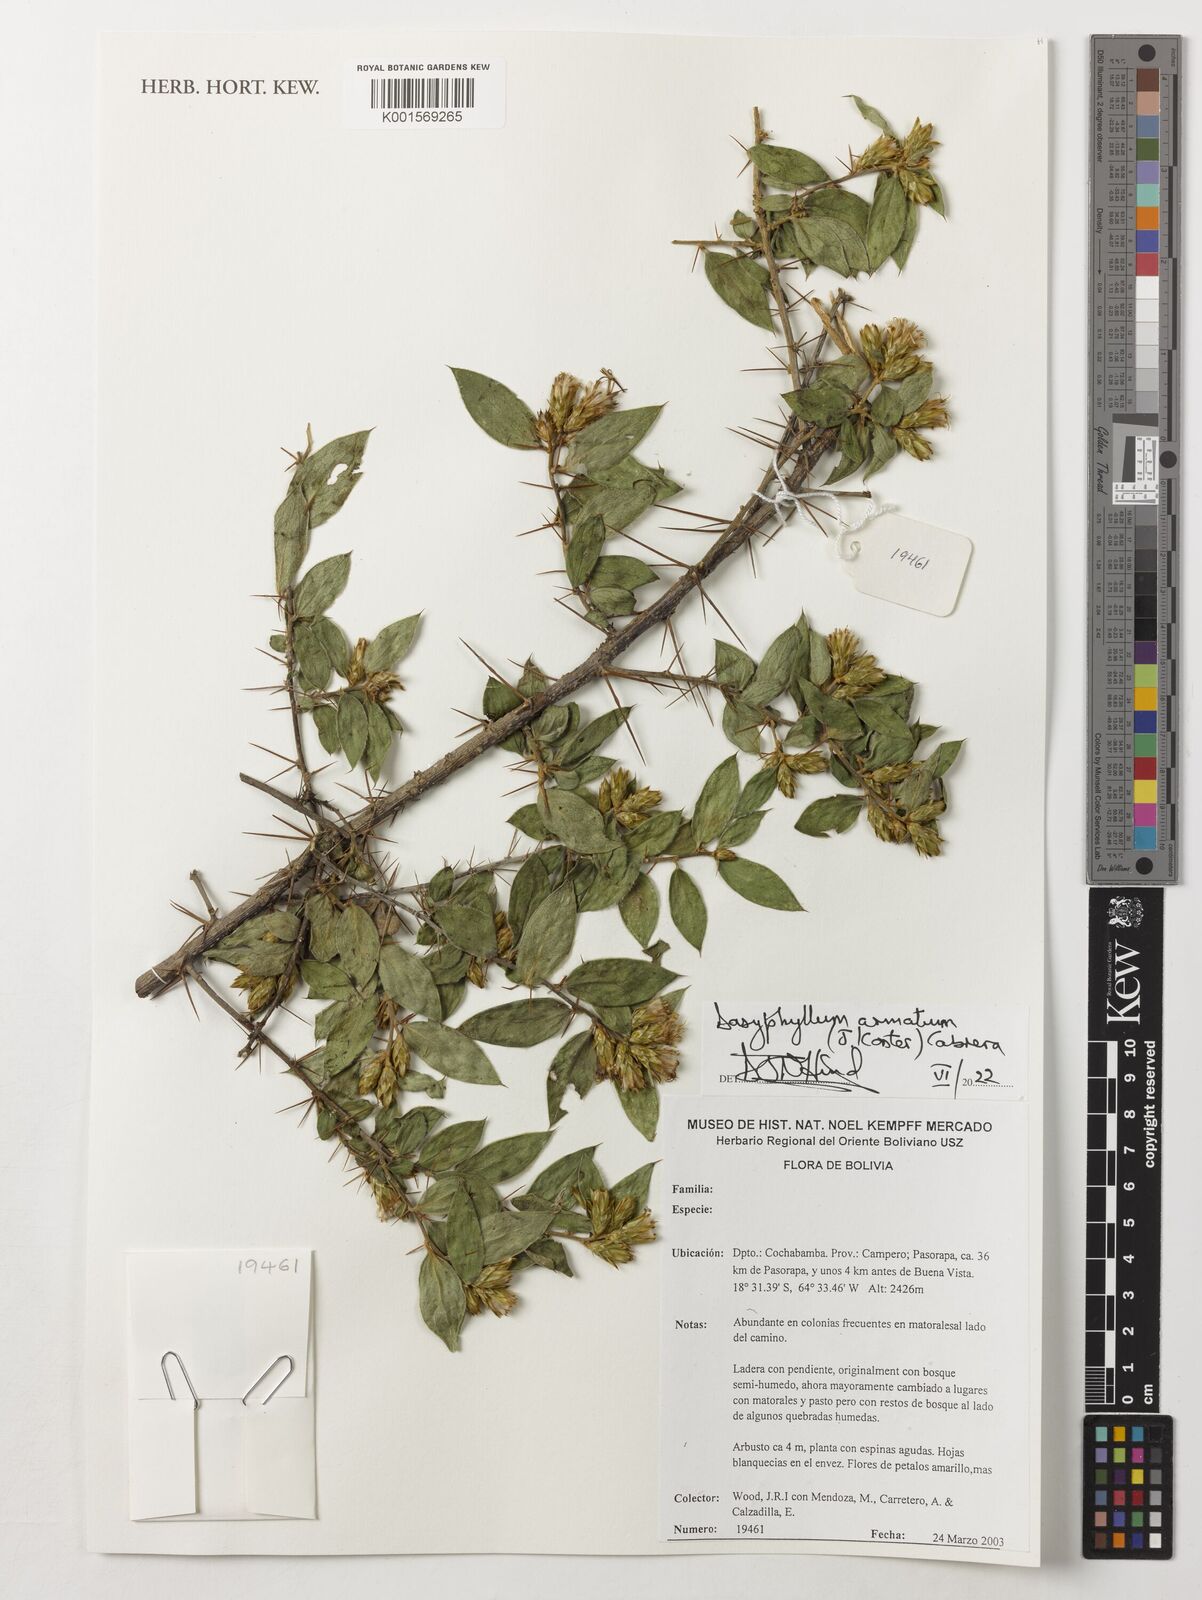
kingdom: Plantae
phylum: Tracheophyta
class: Magnoliopsida
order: Asterales
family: Asteraceae
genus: Dasyphyllum
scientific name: Dasyphyllum armatum
